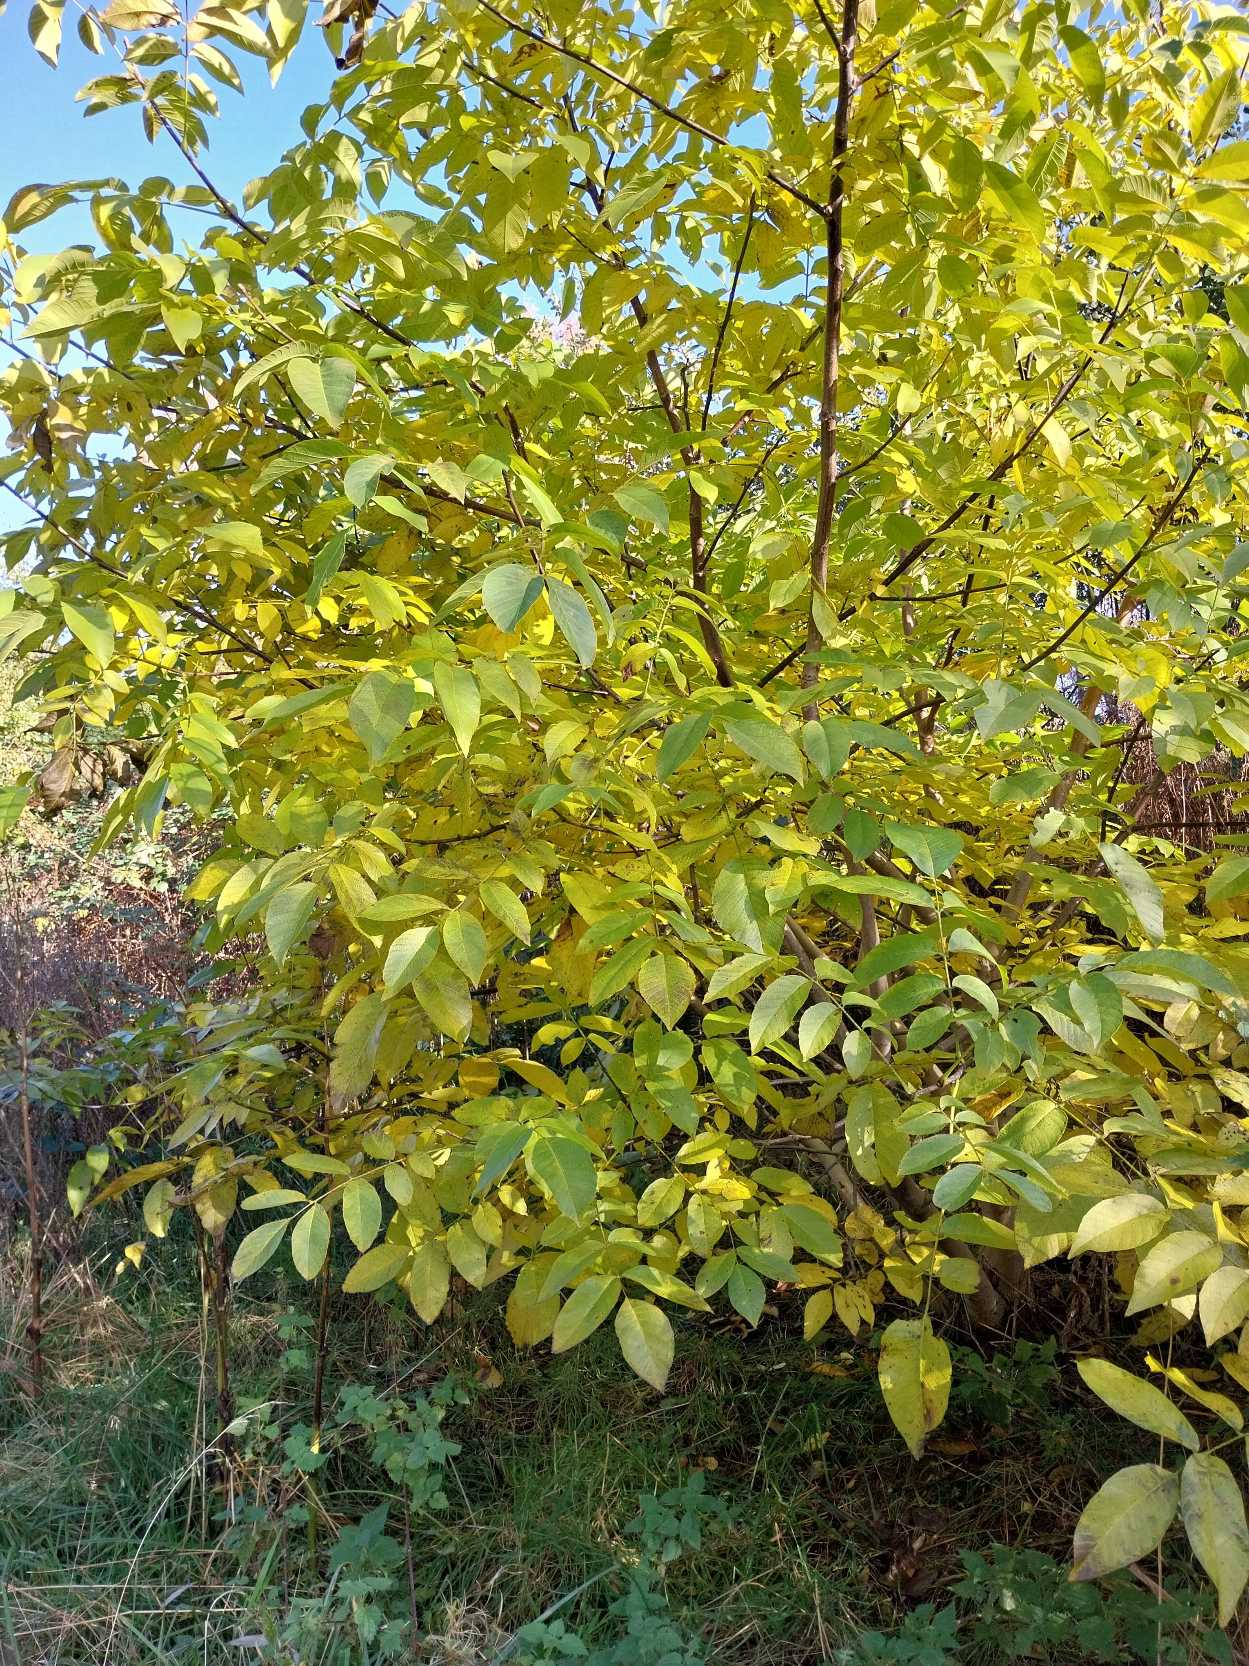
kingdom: Plantae
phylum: Tracheophyta
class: Magnoliopsida
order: Fagales
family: Juglandaceae
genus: Juglans
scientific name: Juglans regia
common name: Almindelig valnød
